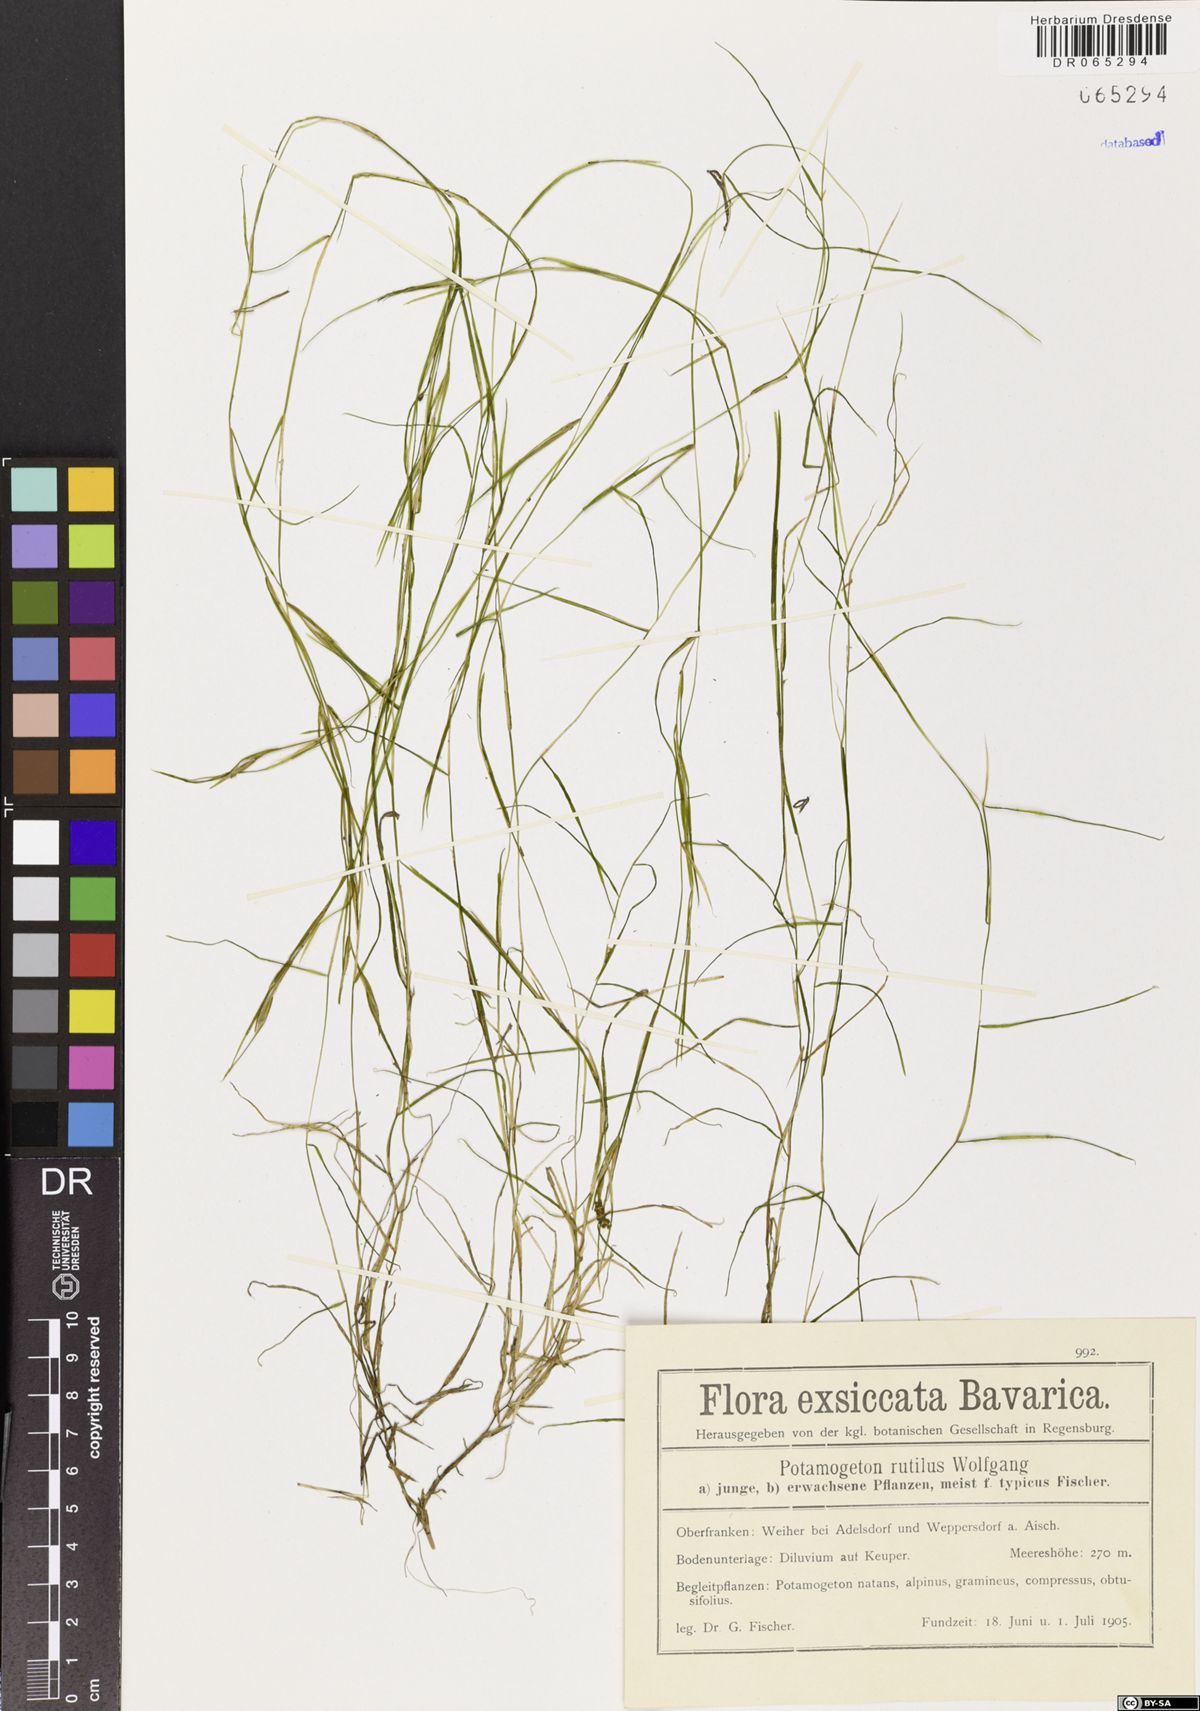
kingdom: Plantae
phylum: Tracheophyta
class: Liliopsida
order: Alismatales
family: Potamogetonaceae
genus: Potamogeton
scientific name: Potamogeton rutilus
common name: Shetland pondweed
